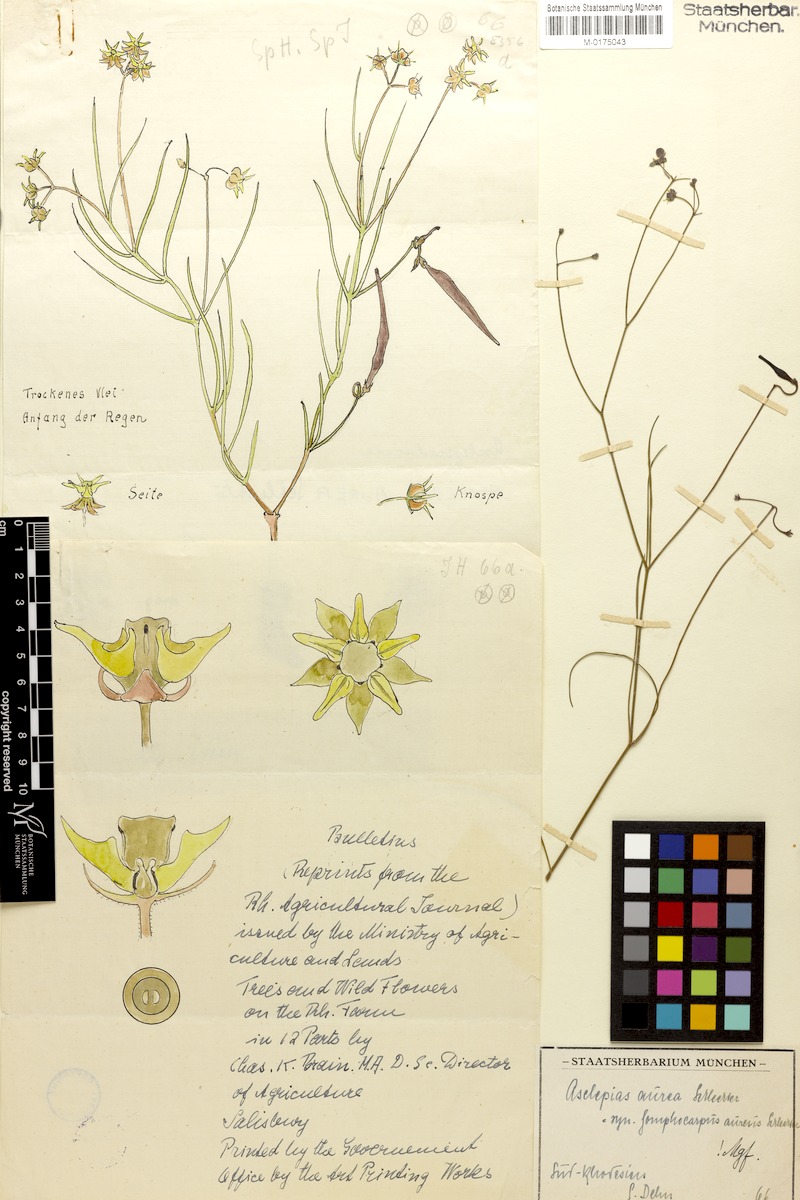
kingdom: Plantae
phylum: Tracheophyta
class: Magnoliopsida
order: Gentianales
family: Apocynaceae
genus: Asclepias
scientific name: Asclepias aurea
